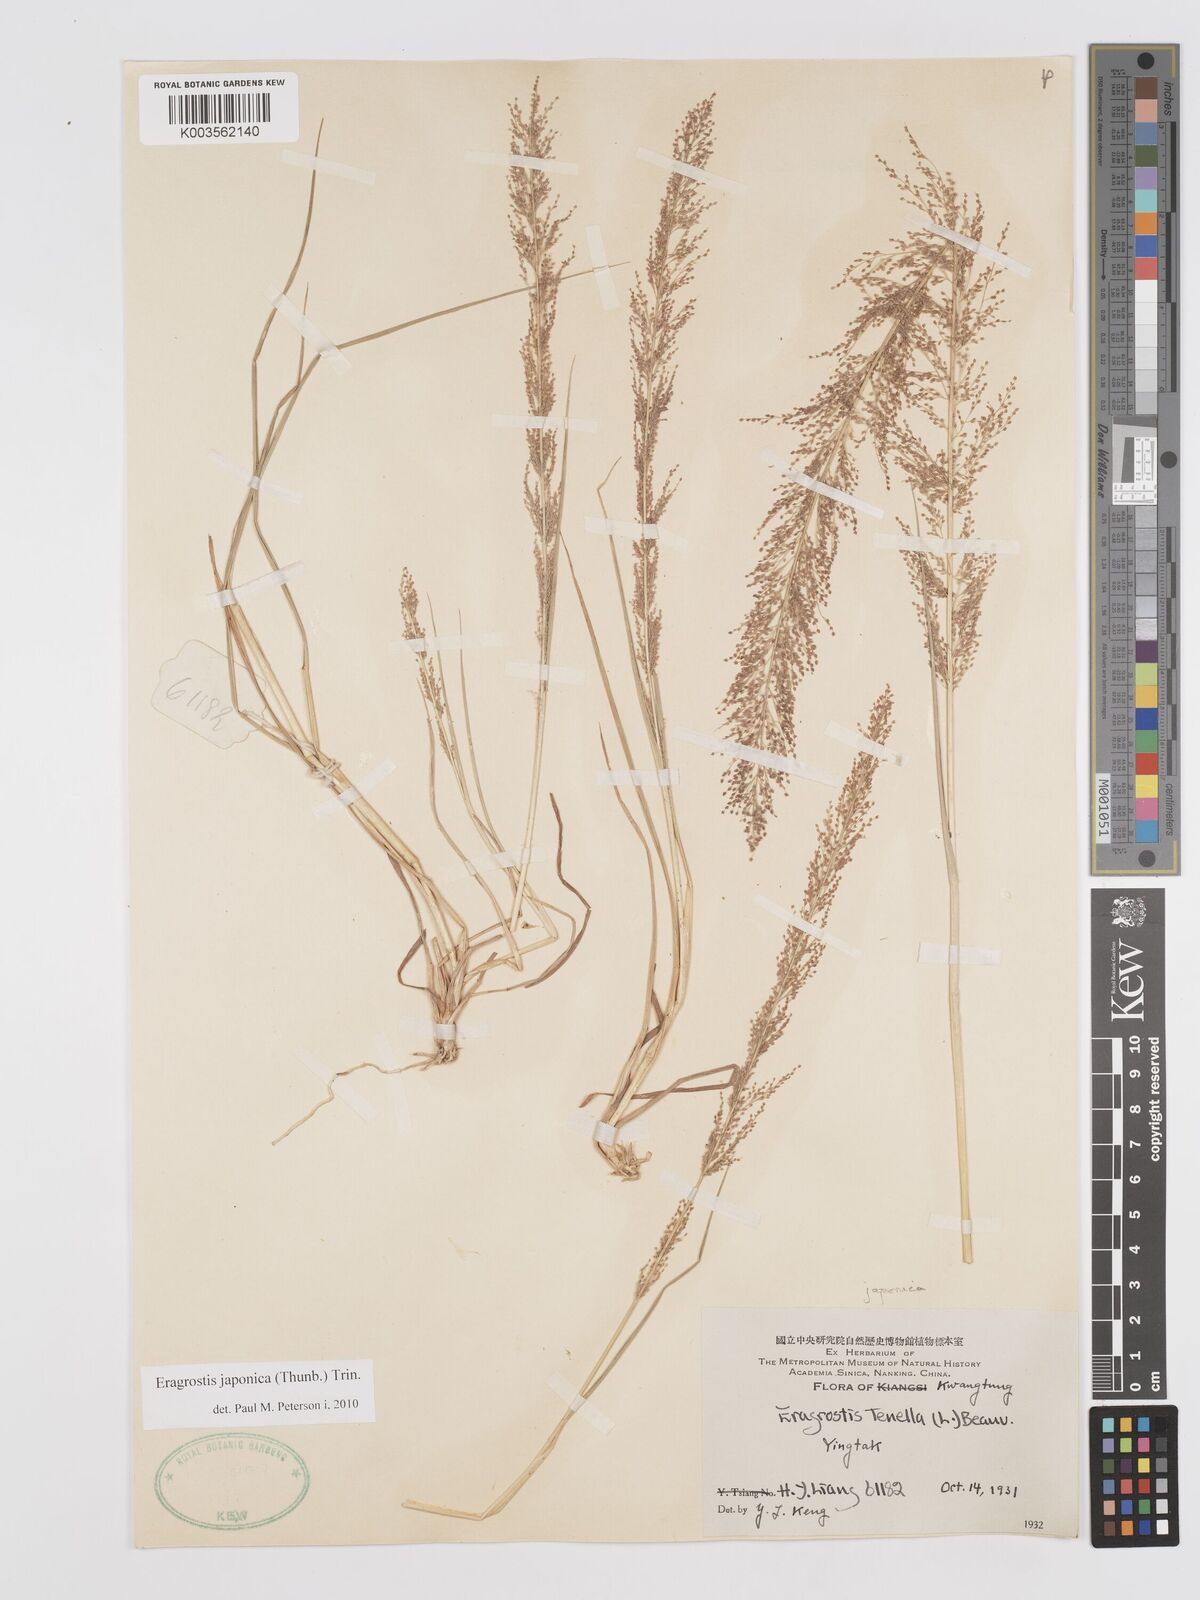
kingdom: Plantae
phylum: Tracheophyta
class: Liliopsida
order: Poales
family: Poaceae
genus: Eragrostis
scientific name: Eragrostis japonica
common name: Pond lovegrass
